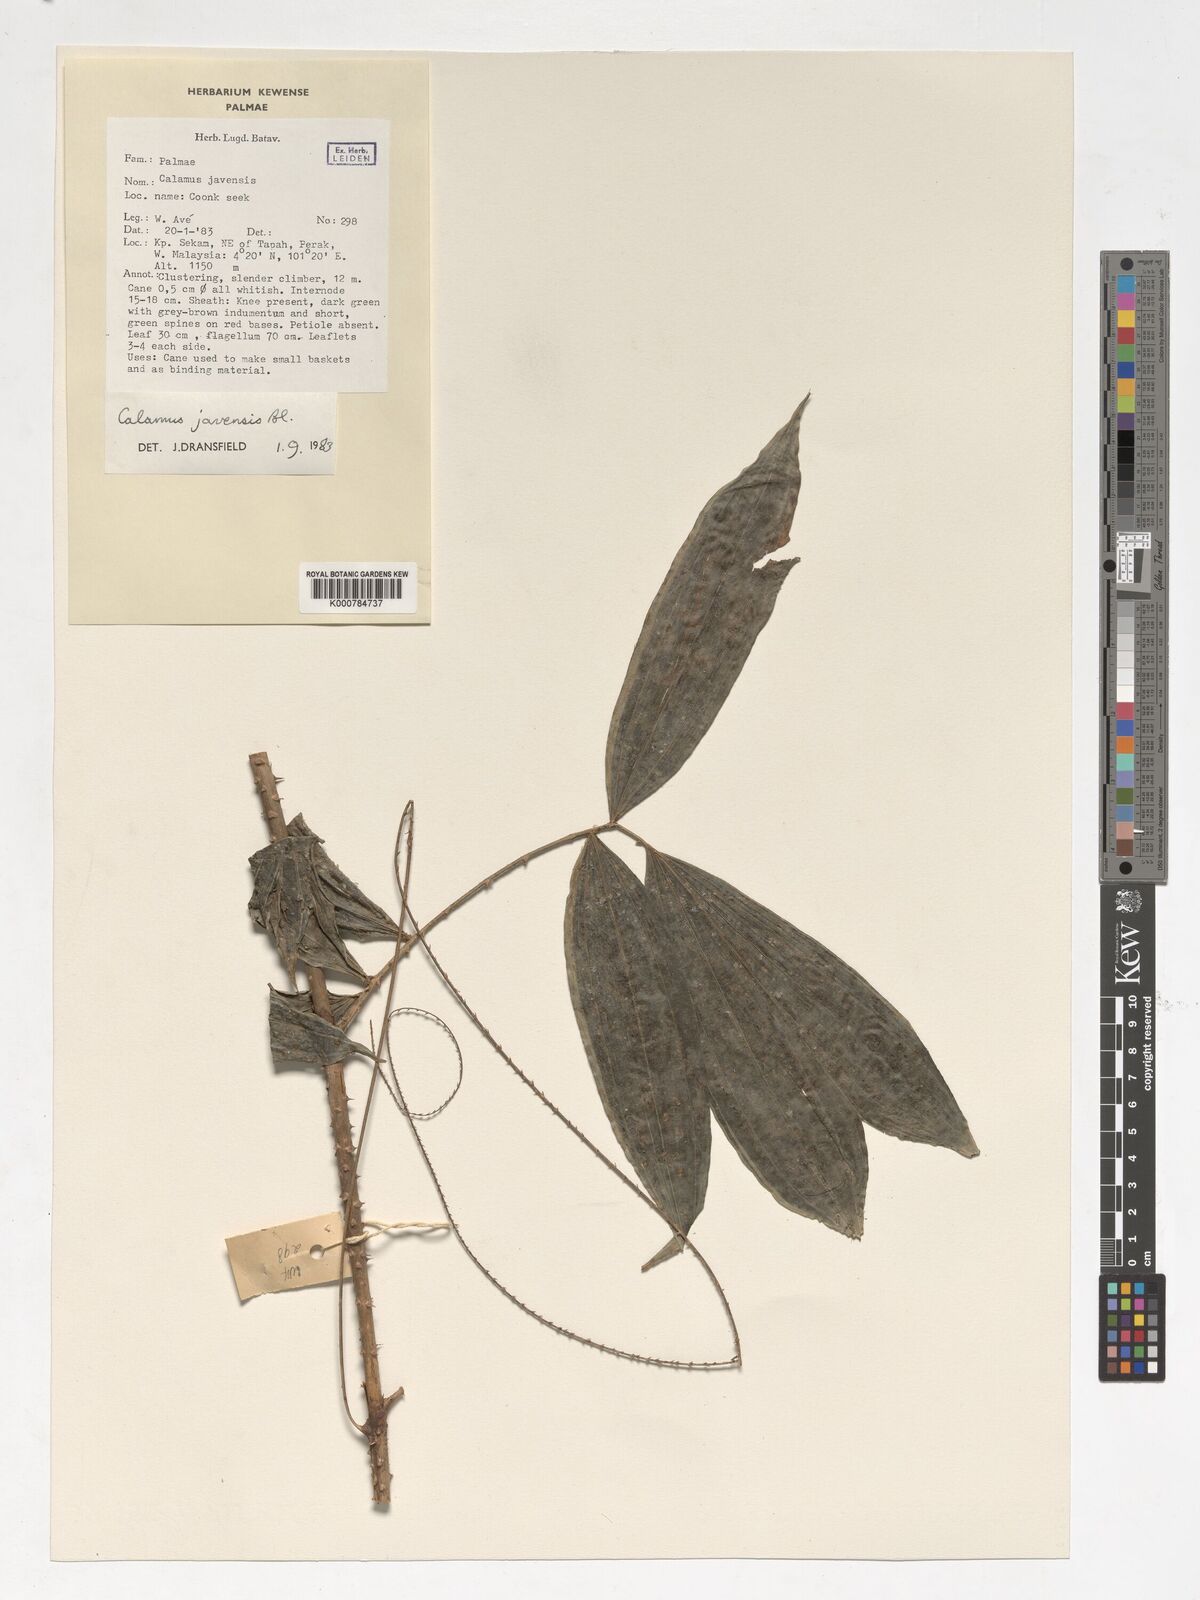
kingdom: Plantae
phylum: Tracheophyta
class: Liliopsida
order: Arecales
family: Arecaceae
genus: Calamus
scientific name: Calamus javensis
